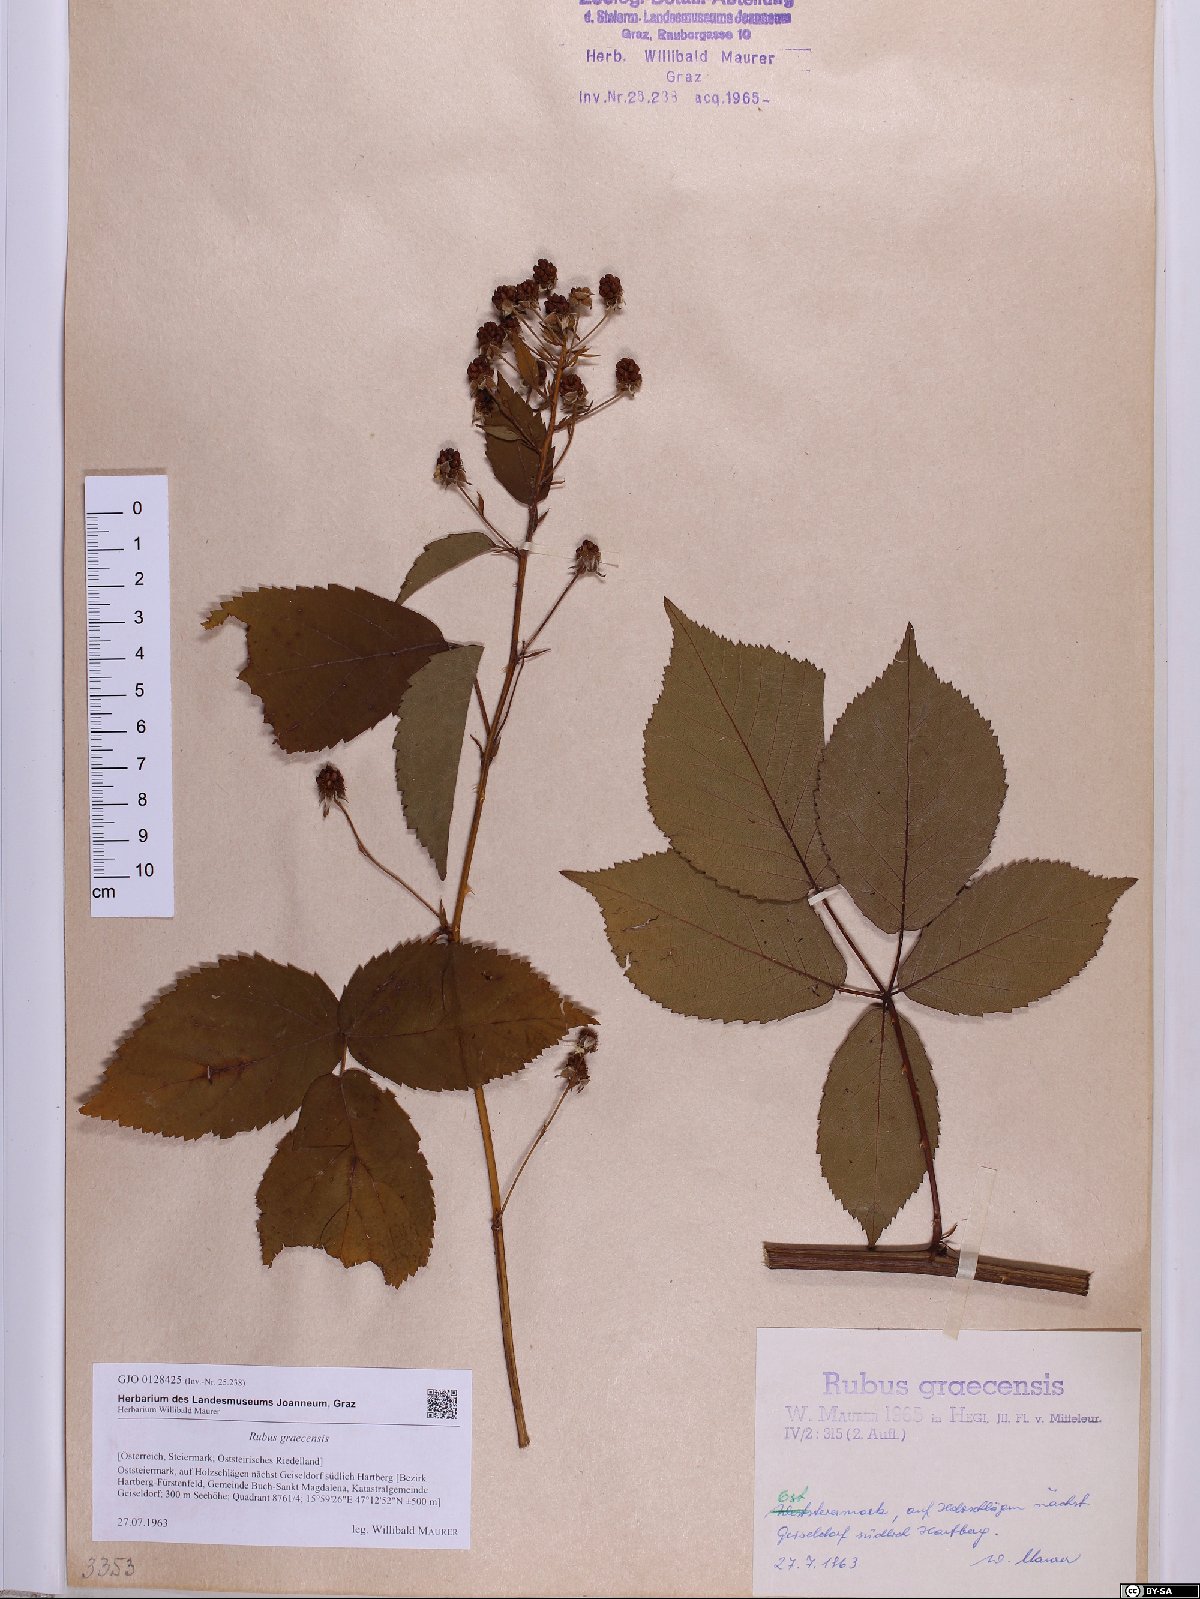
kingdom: Plantae
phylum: Tracheophyta
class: Magnoliopsida
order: Rosales
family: Rosaceae
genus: Rubus
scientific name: Rubus graecensis
